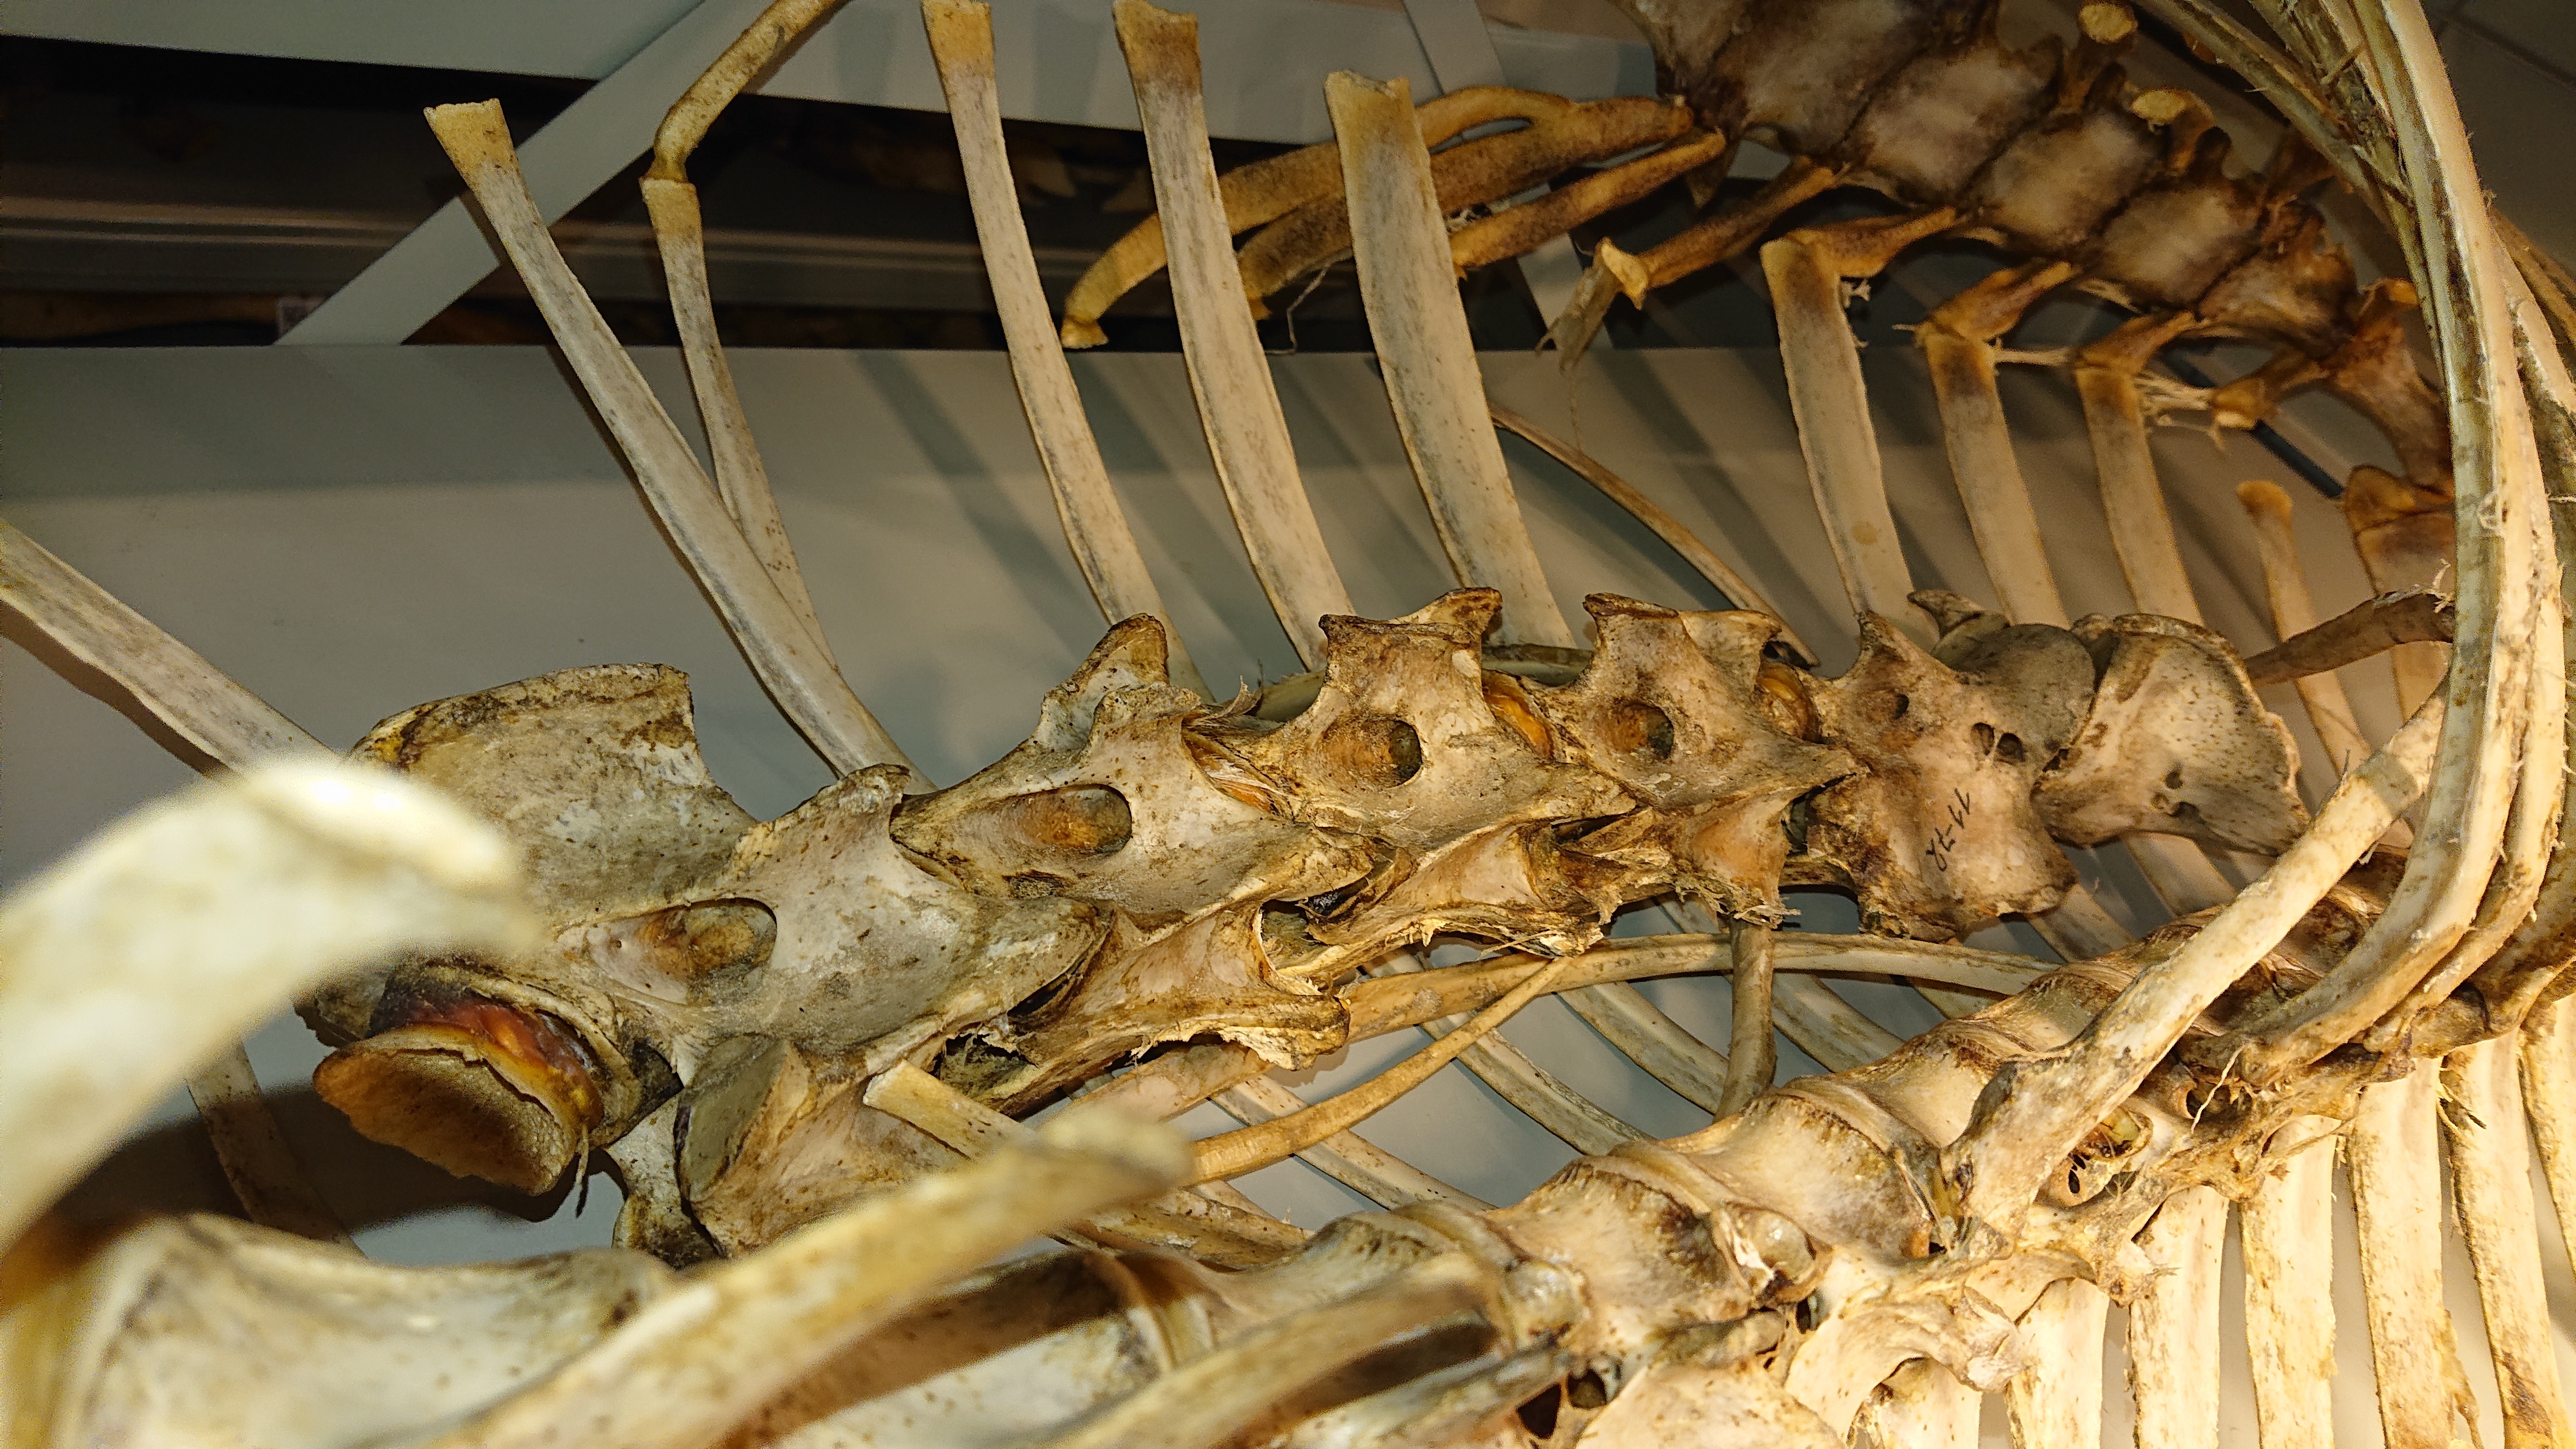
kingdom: Animalia
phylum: Chordata
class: Mammalia
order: Artiodactyla
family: Cervidae
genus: Cervus
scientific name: Cervus elaphus
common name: Red deer
